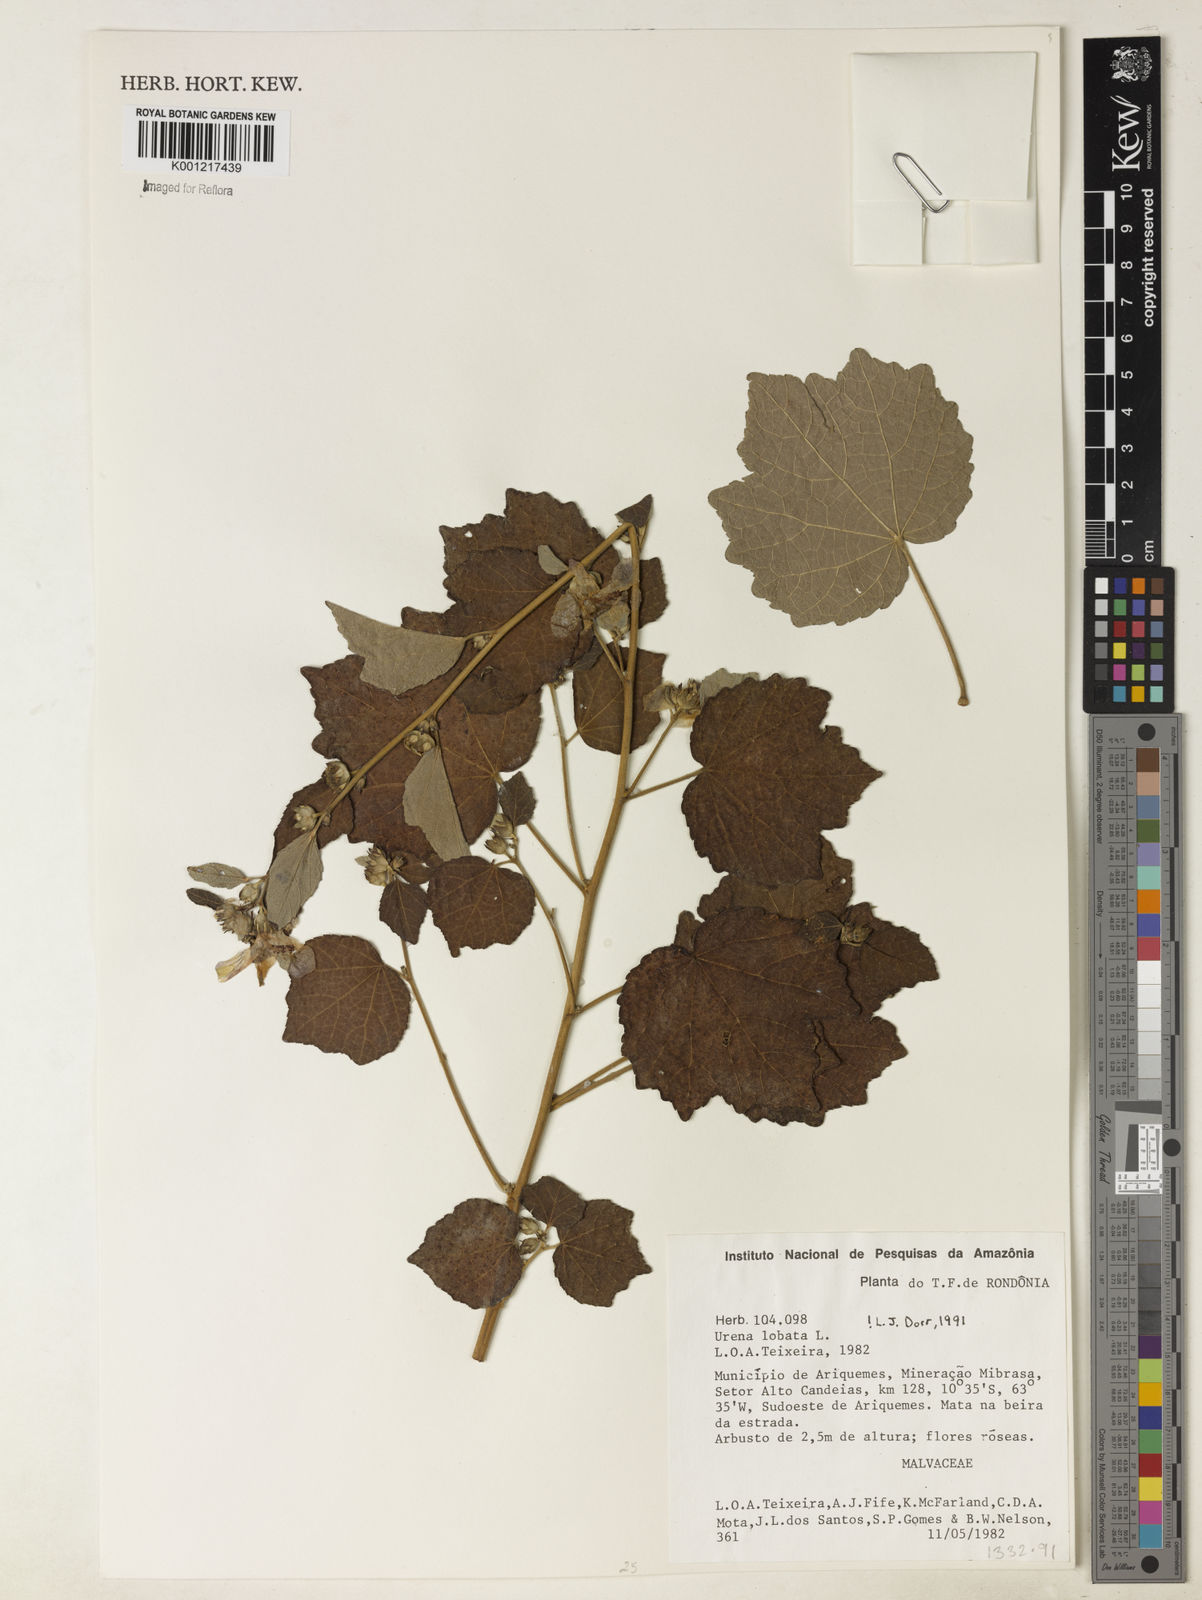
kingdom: Plantae
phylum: Tracheophyta
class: Magnoliopsida
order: Malvales
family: Malvaceae
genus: Urena
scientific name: Urena lobata
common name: Caesarweed
